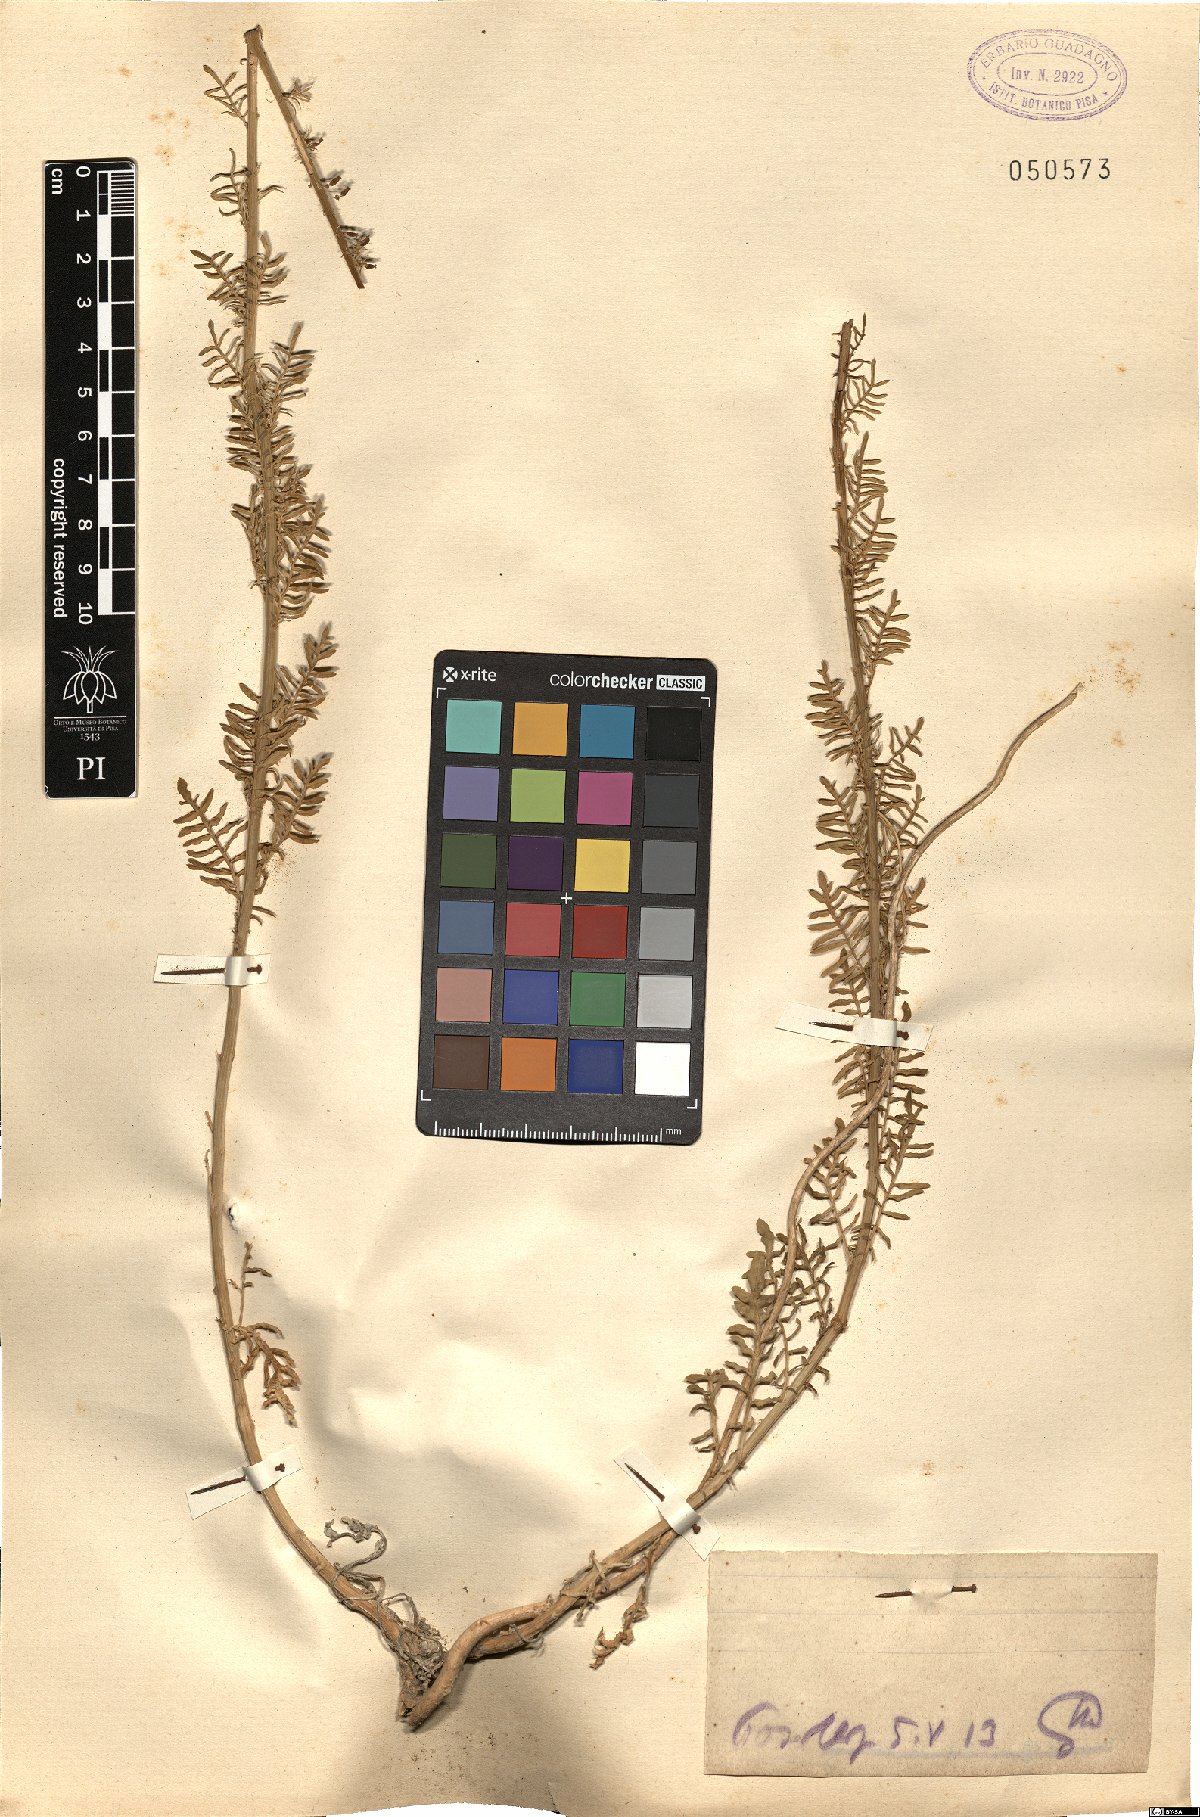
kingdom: Plantae
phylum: Tracheophyta
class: Magnoliopsida
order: Brassicales
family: Resedaceae
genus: Reseda
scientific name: Reseda
